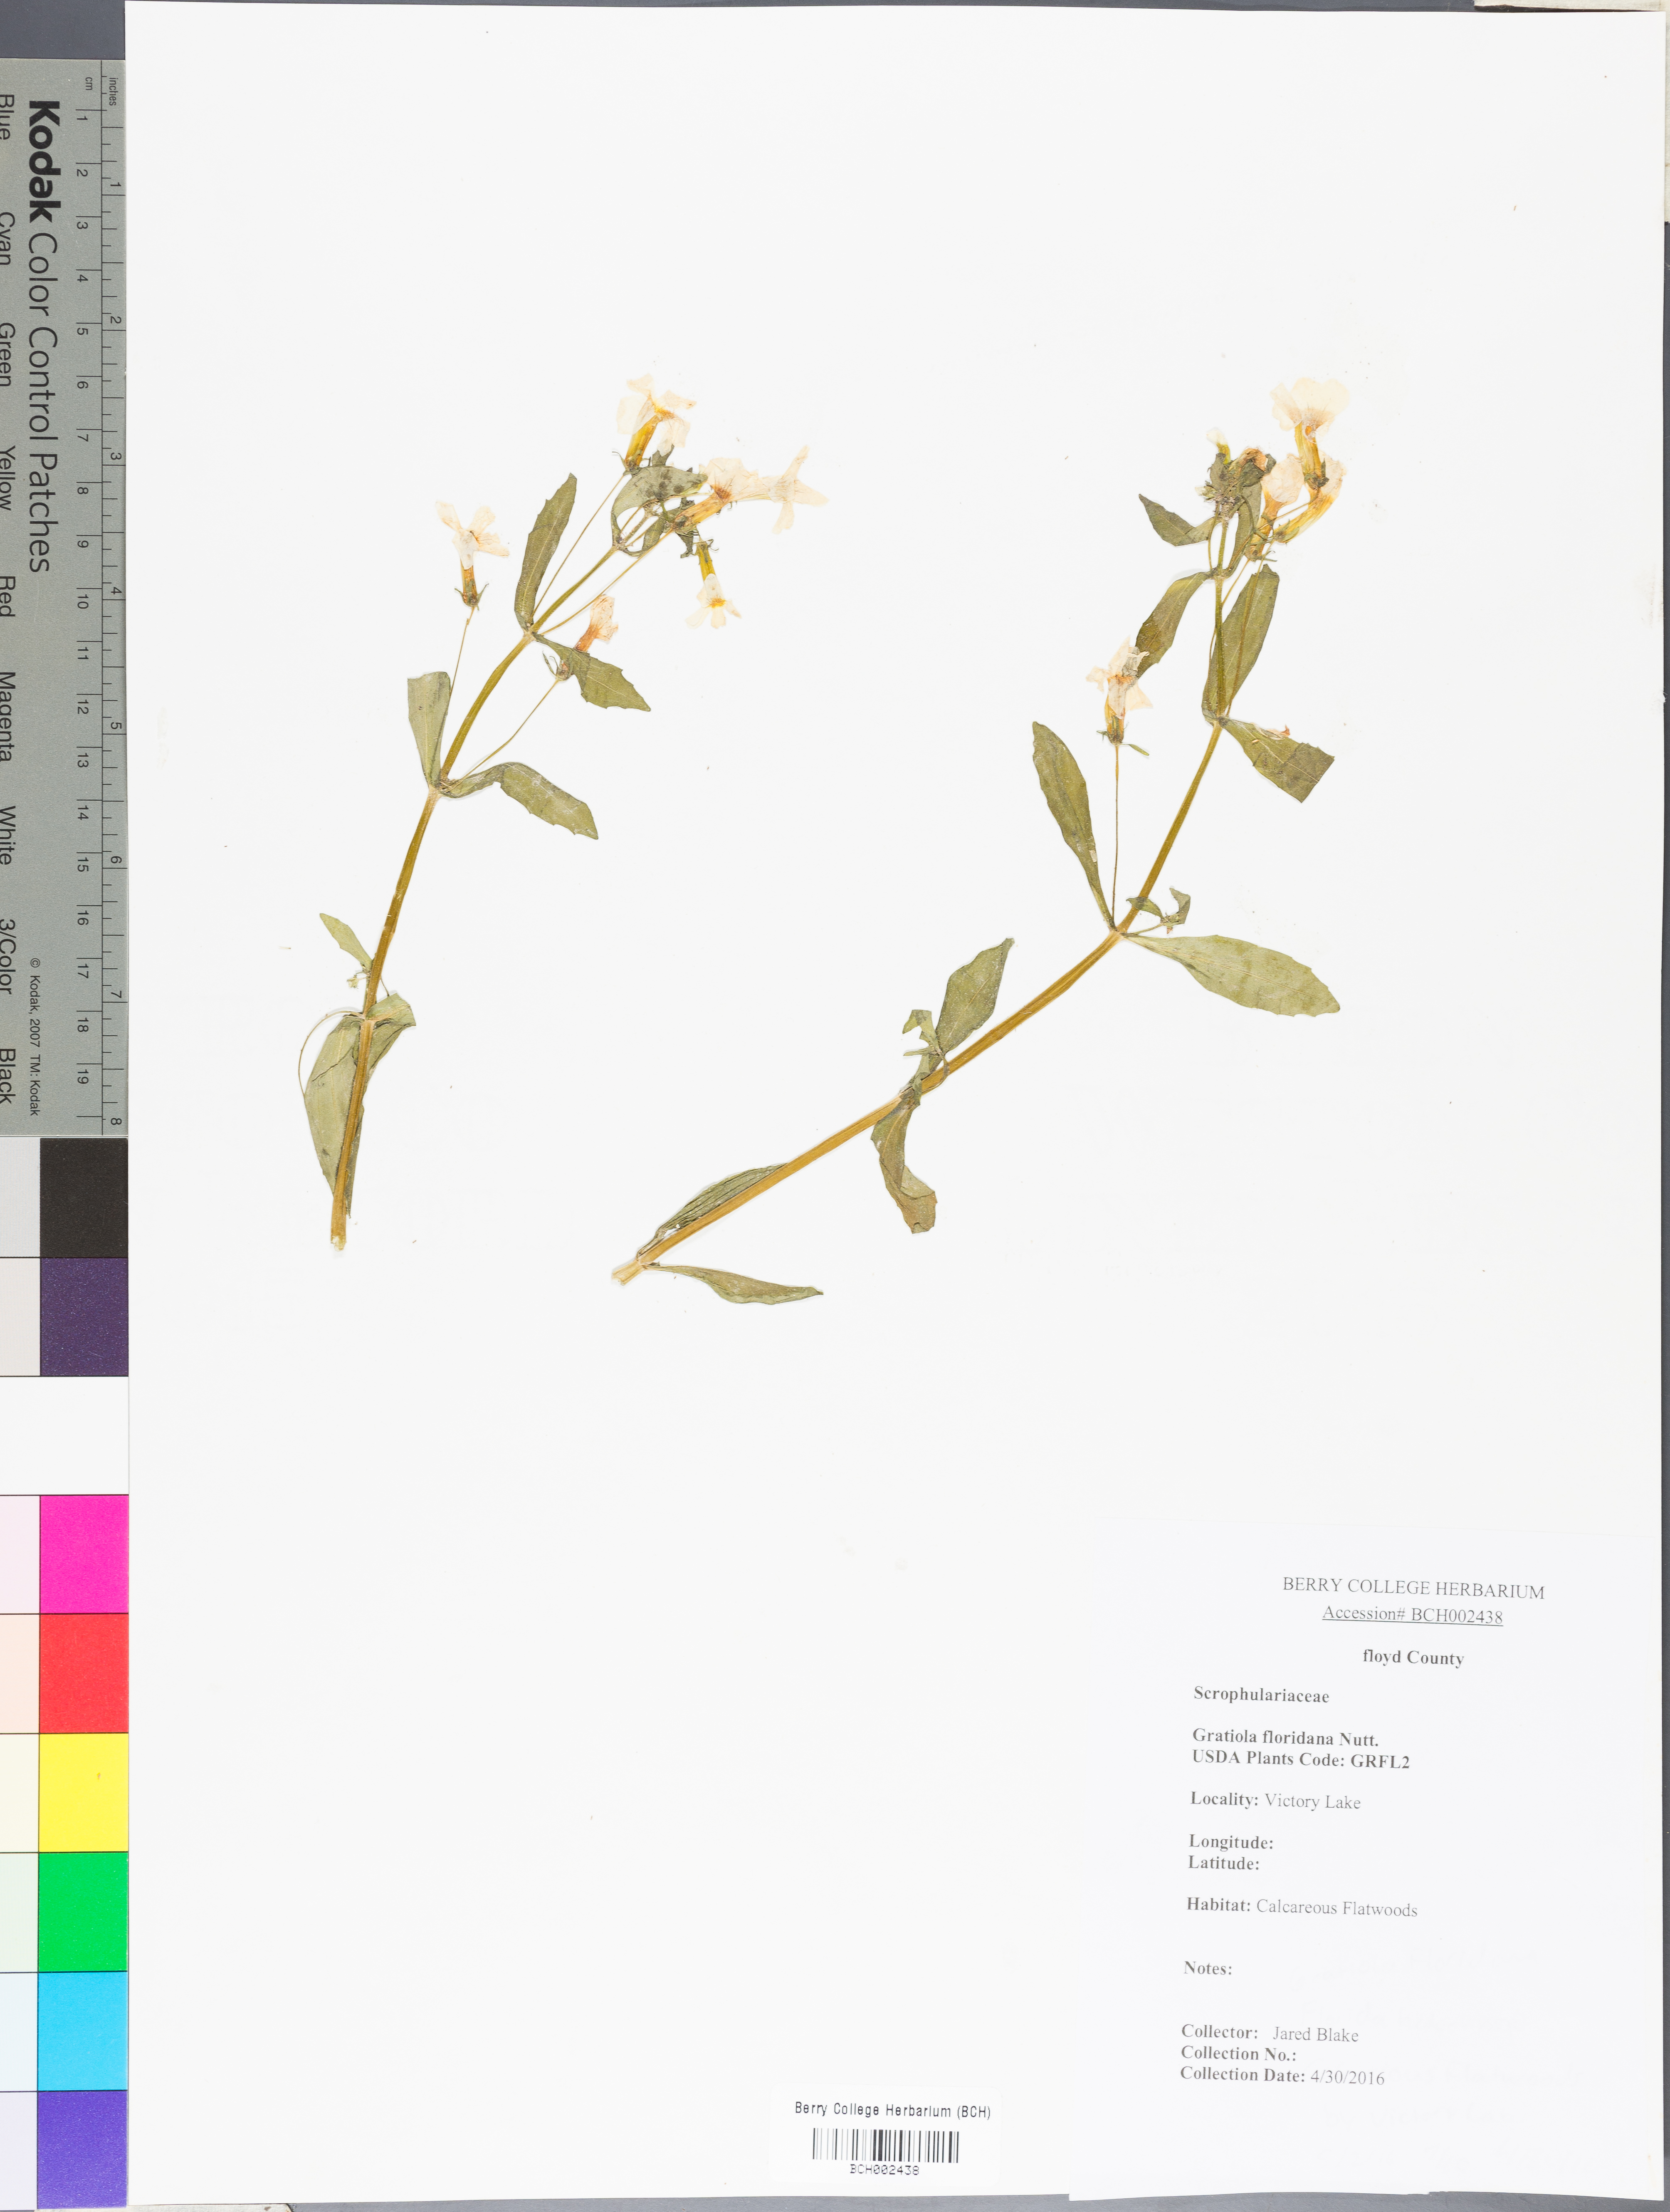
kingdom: Plantae
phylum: Tracheophyta
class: Magnoliopsida
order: Lamiales
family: Plantaginaceae
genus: Gratiola
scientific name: Gratiola floridana
